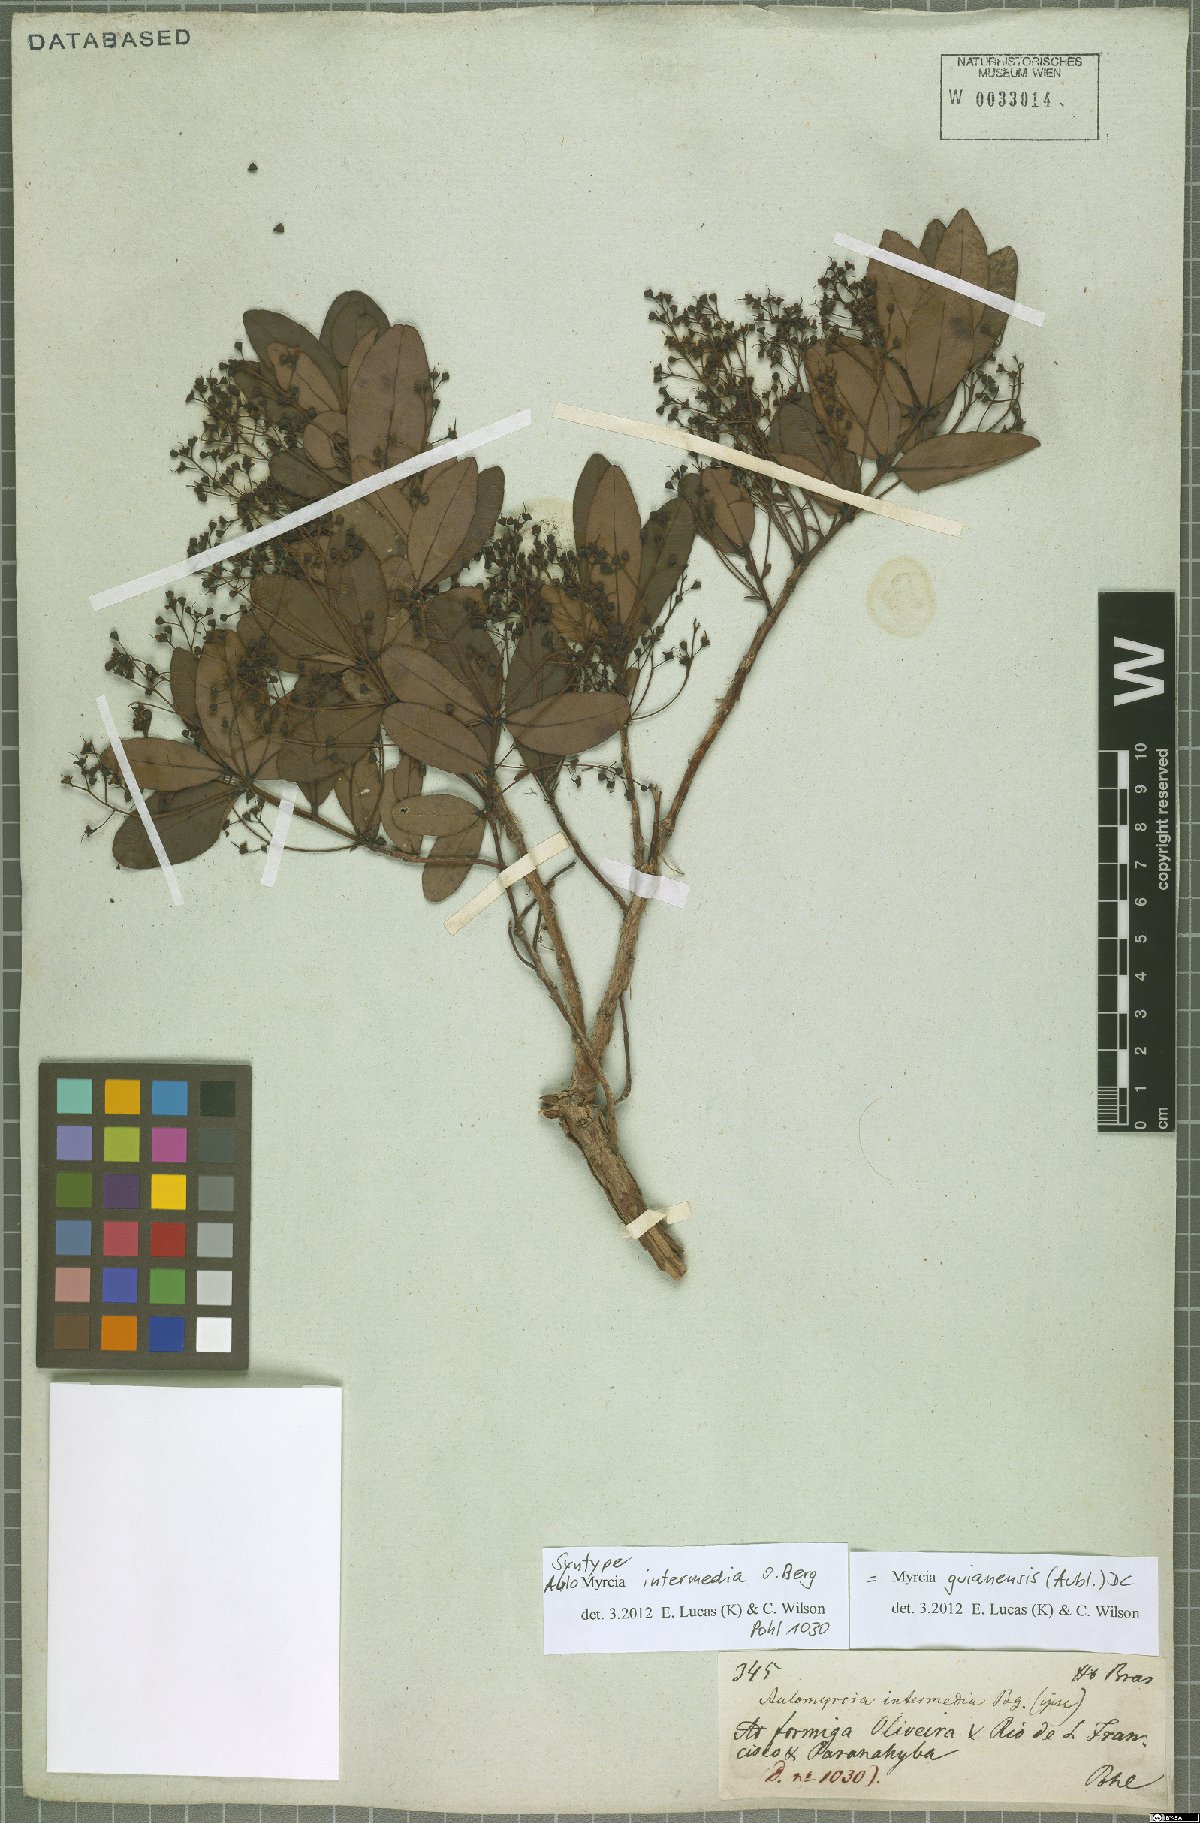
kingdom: Plantae
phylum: Tracheophyta
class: Magnoliopsida
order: Myrtales
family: Myrtaceae
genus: Myrcia
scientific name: Myrcia guianensis
